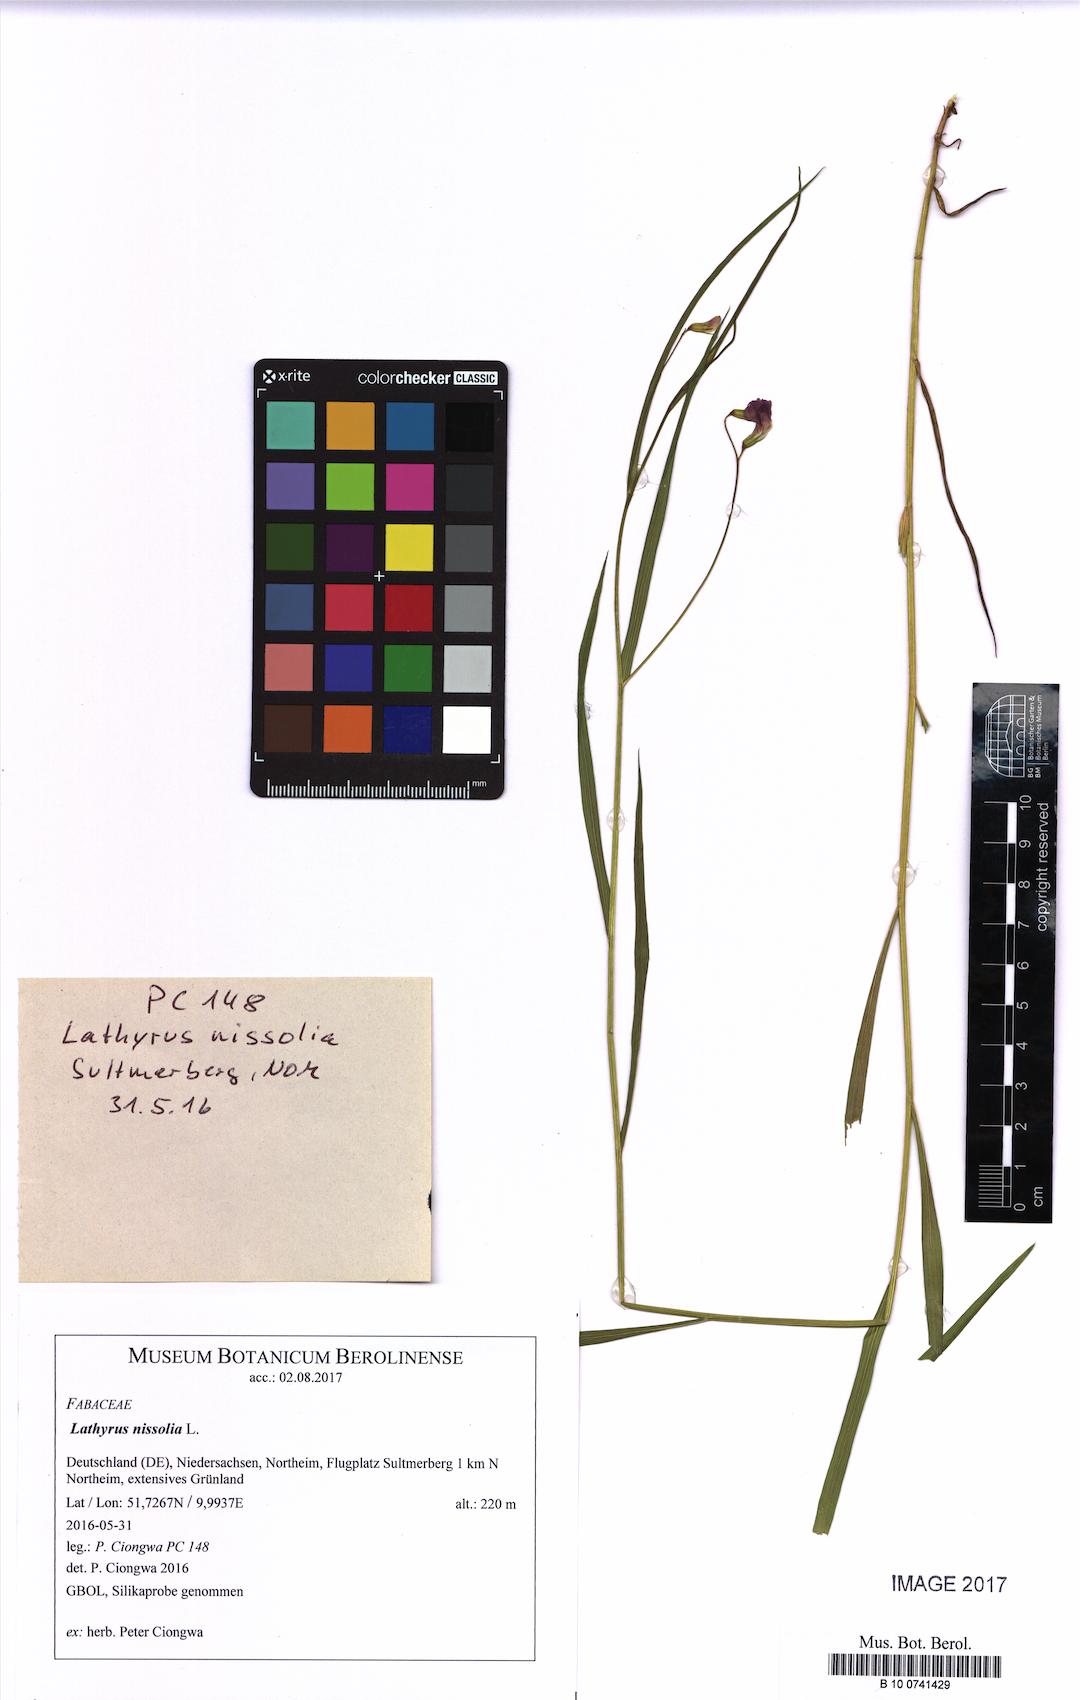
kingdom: Plantae
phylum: Tracheophyta
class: Magnoliopsida
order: Fabales
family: Fabaceae
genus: Lathyrus
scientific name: Lathyrus nissolia
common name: Grass vetchling
